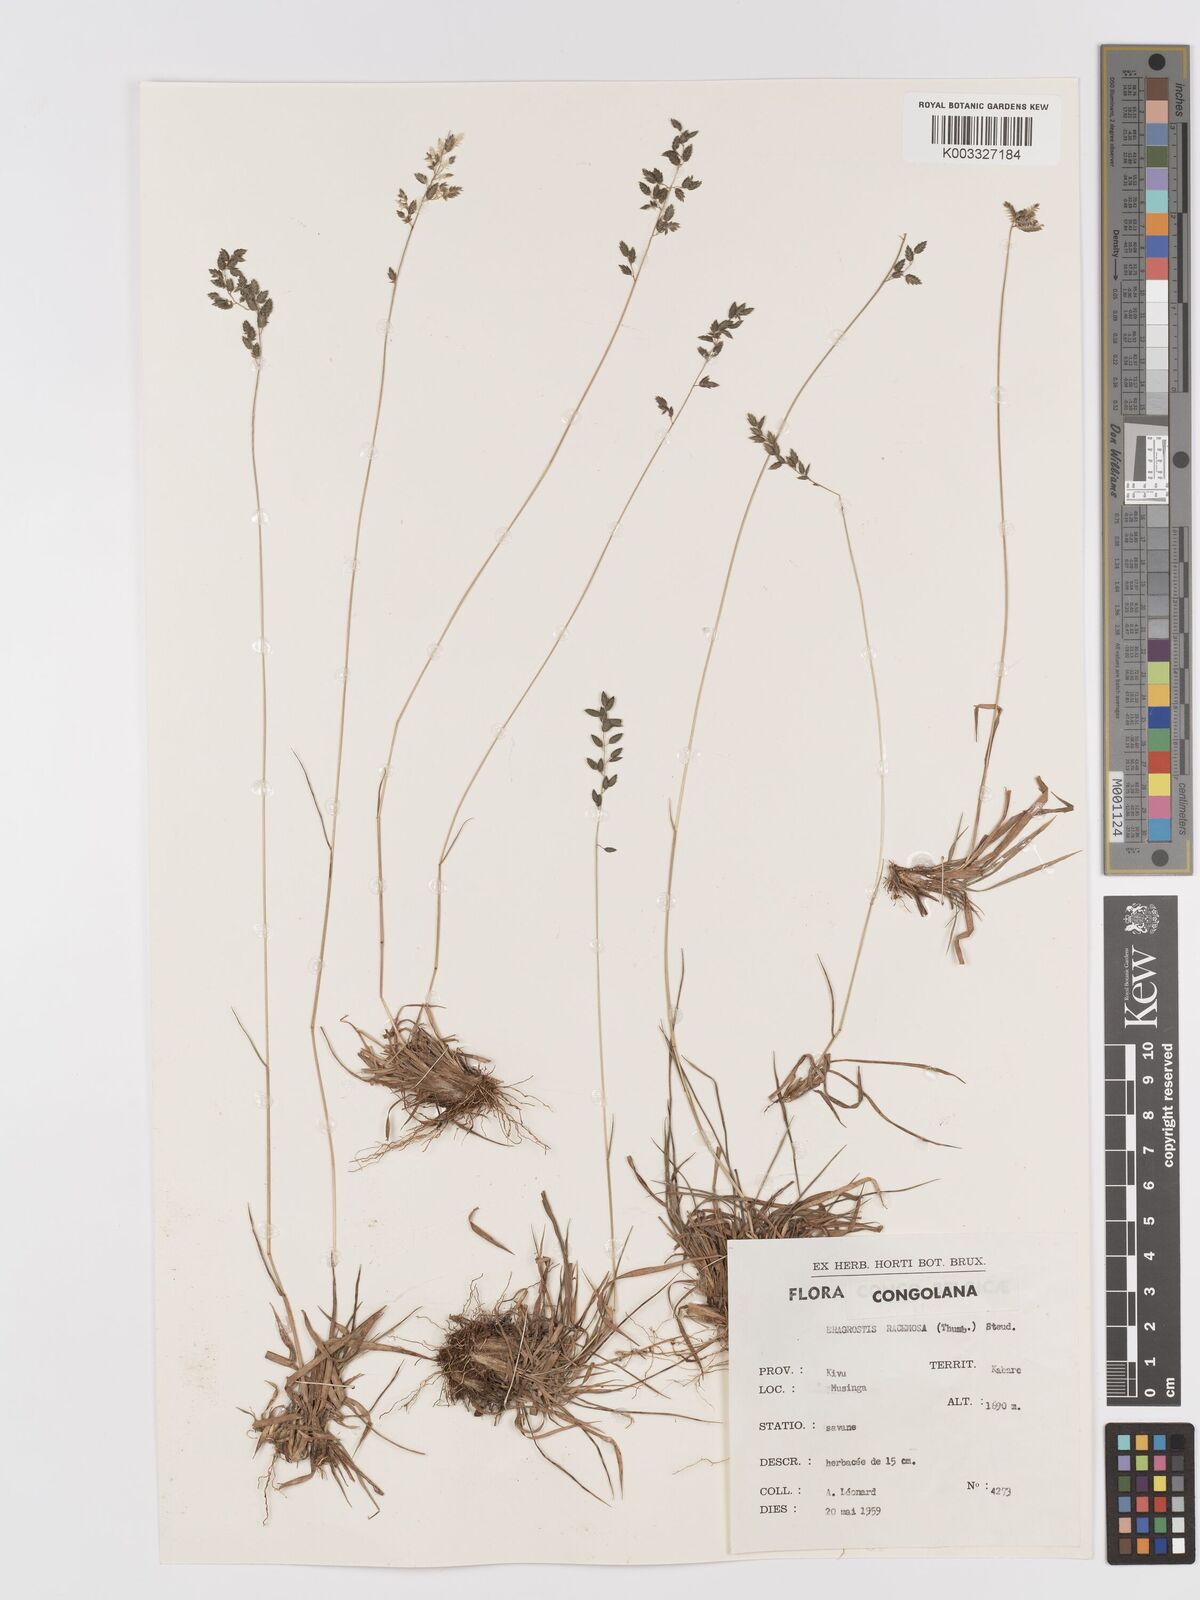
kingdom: Plantae
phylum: Tracheophyta
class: Liliopsida
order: Poales
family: Poaceae
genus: Eragrostis
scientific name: Eragrostis racemosa
